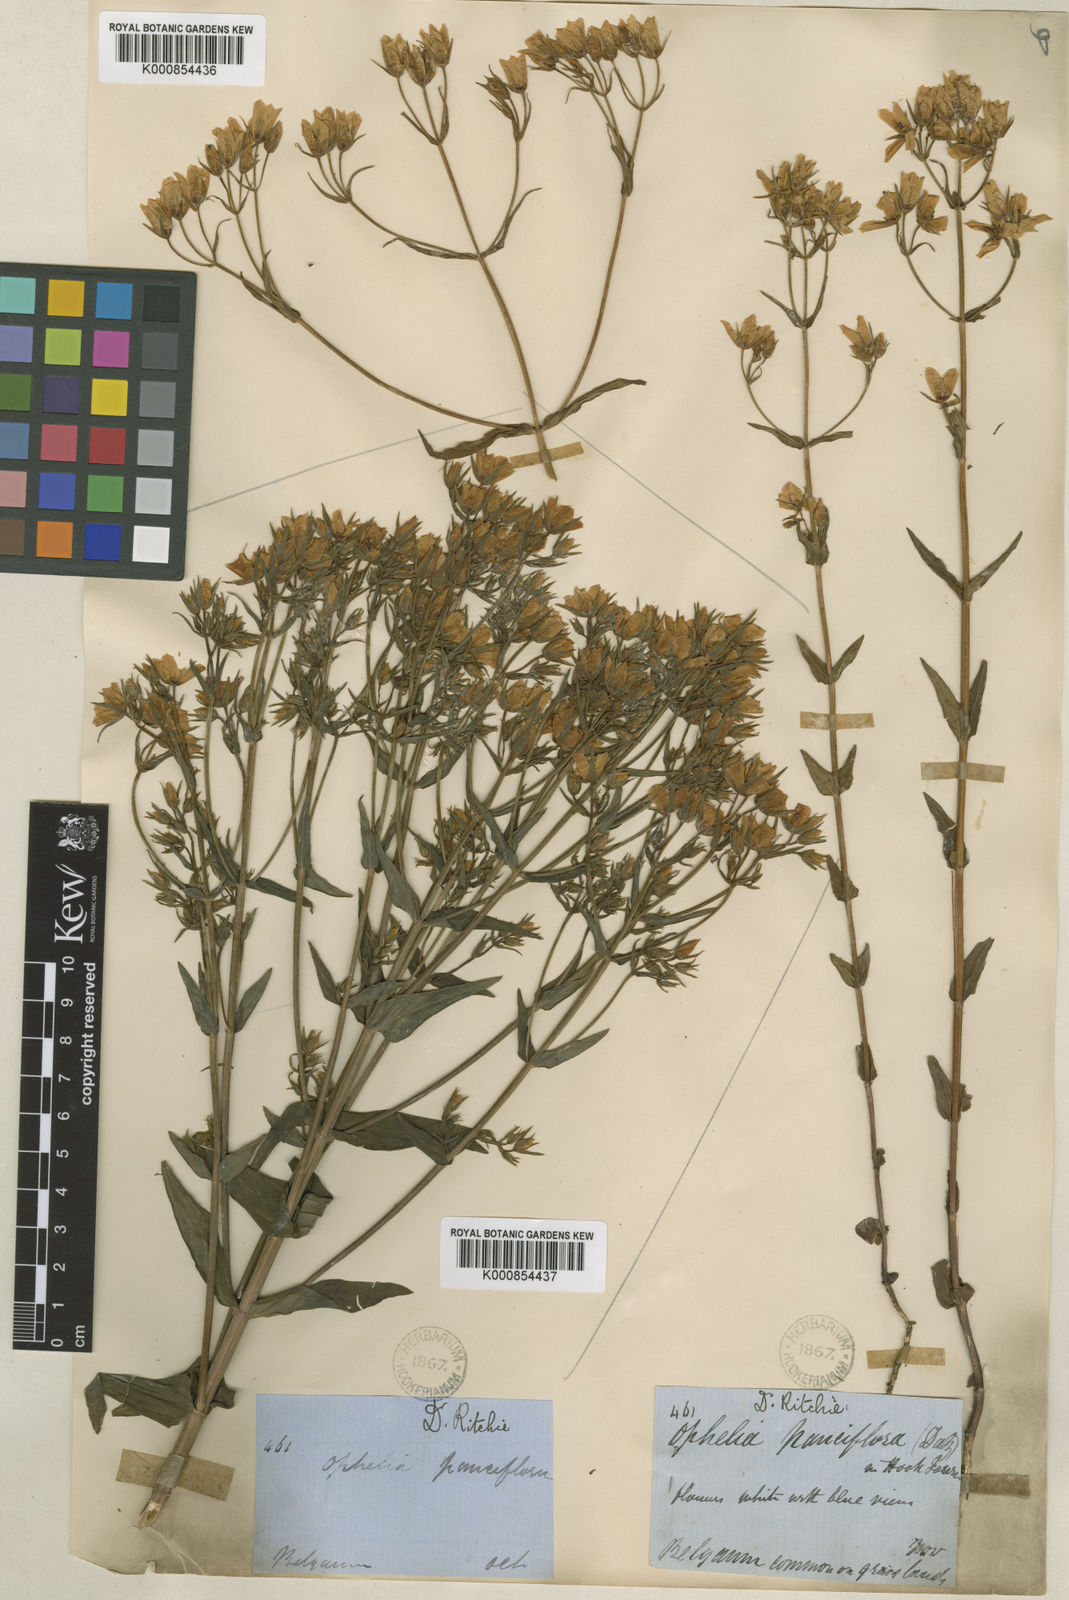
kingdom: Plantae
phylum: Tracheophyta
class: Magnoliopsida
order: Gentianales
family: Gentianaceae
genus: Swertia
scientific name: Swertia
